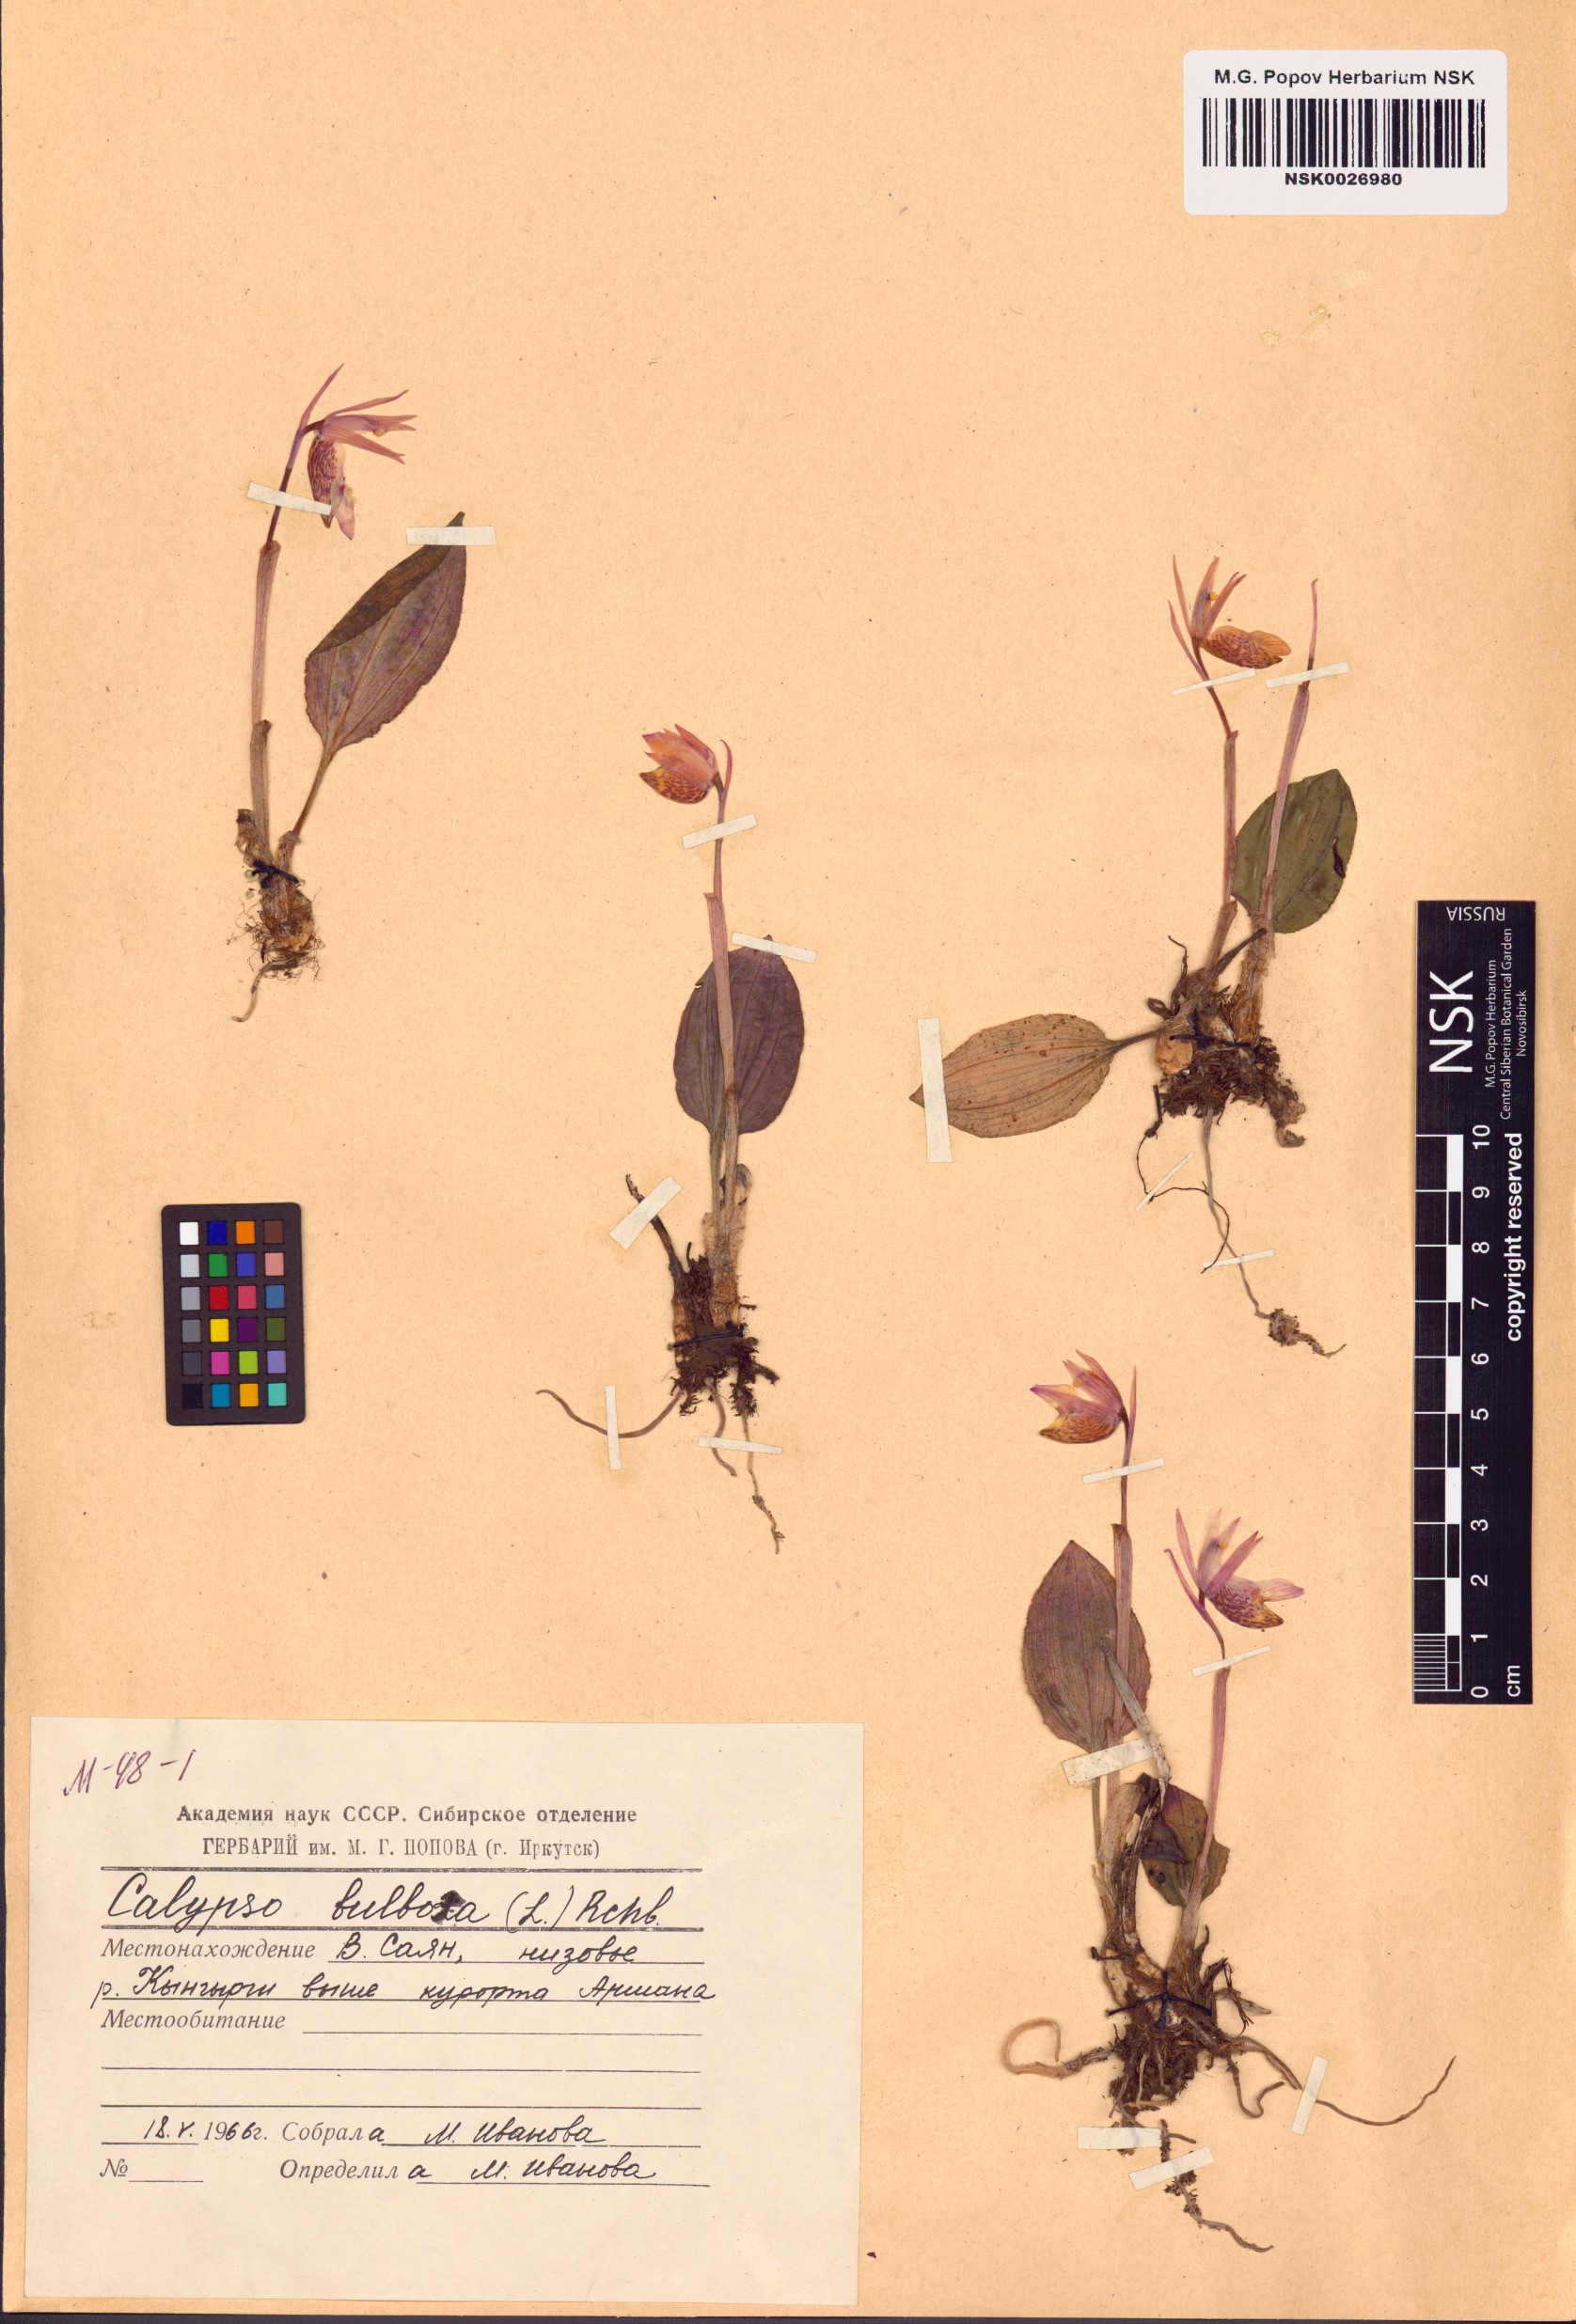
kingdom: Plantae
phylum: Tracheophyta
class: Liliopsida
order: Asparagales
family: Orchidaceae
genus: Calypso
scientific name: Calypso bulbosa
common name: Calypso
